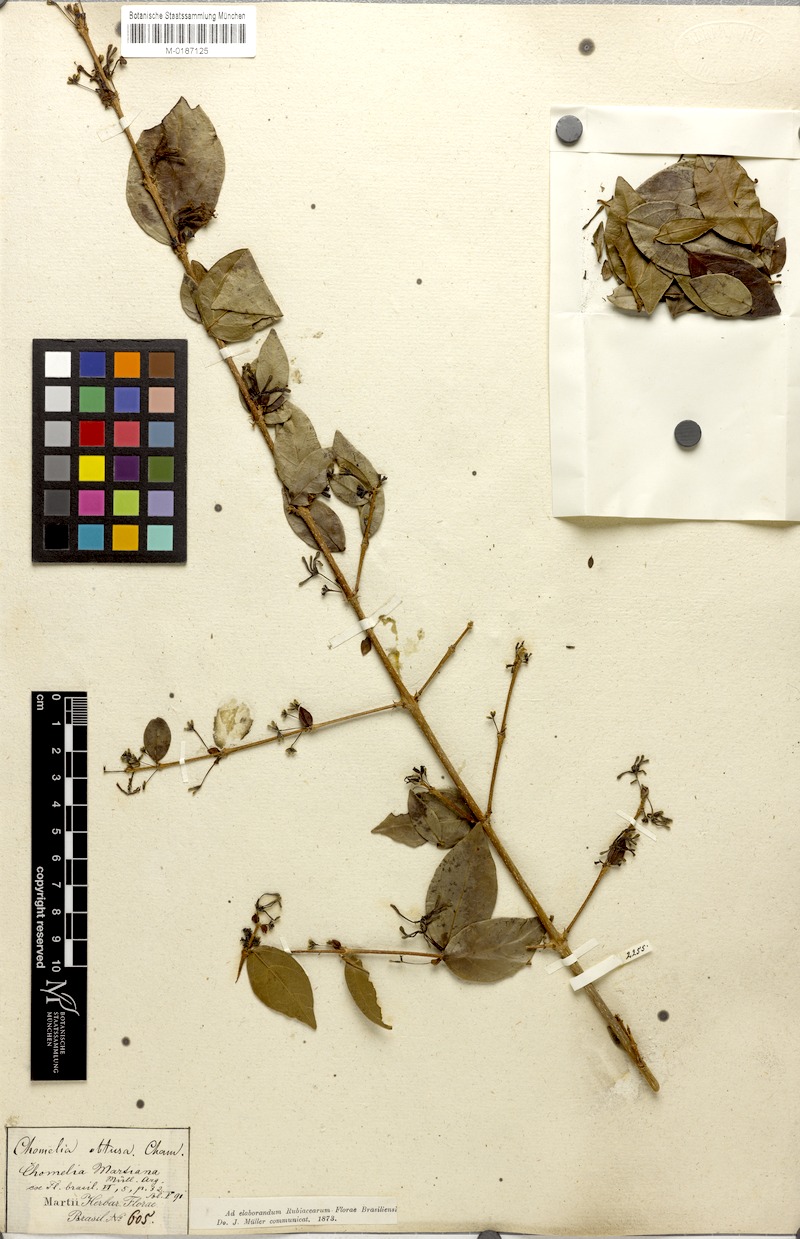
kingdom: Plantae
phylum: Tracheophyta
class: Magnoliopsida
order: Gentianales
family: Rubiaceae
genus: Chomelia
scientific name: Chomelia obtusa
